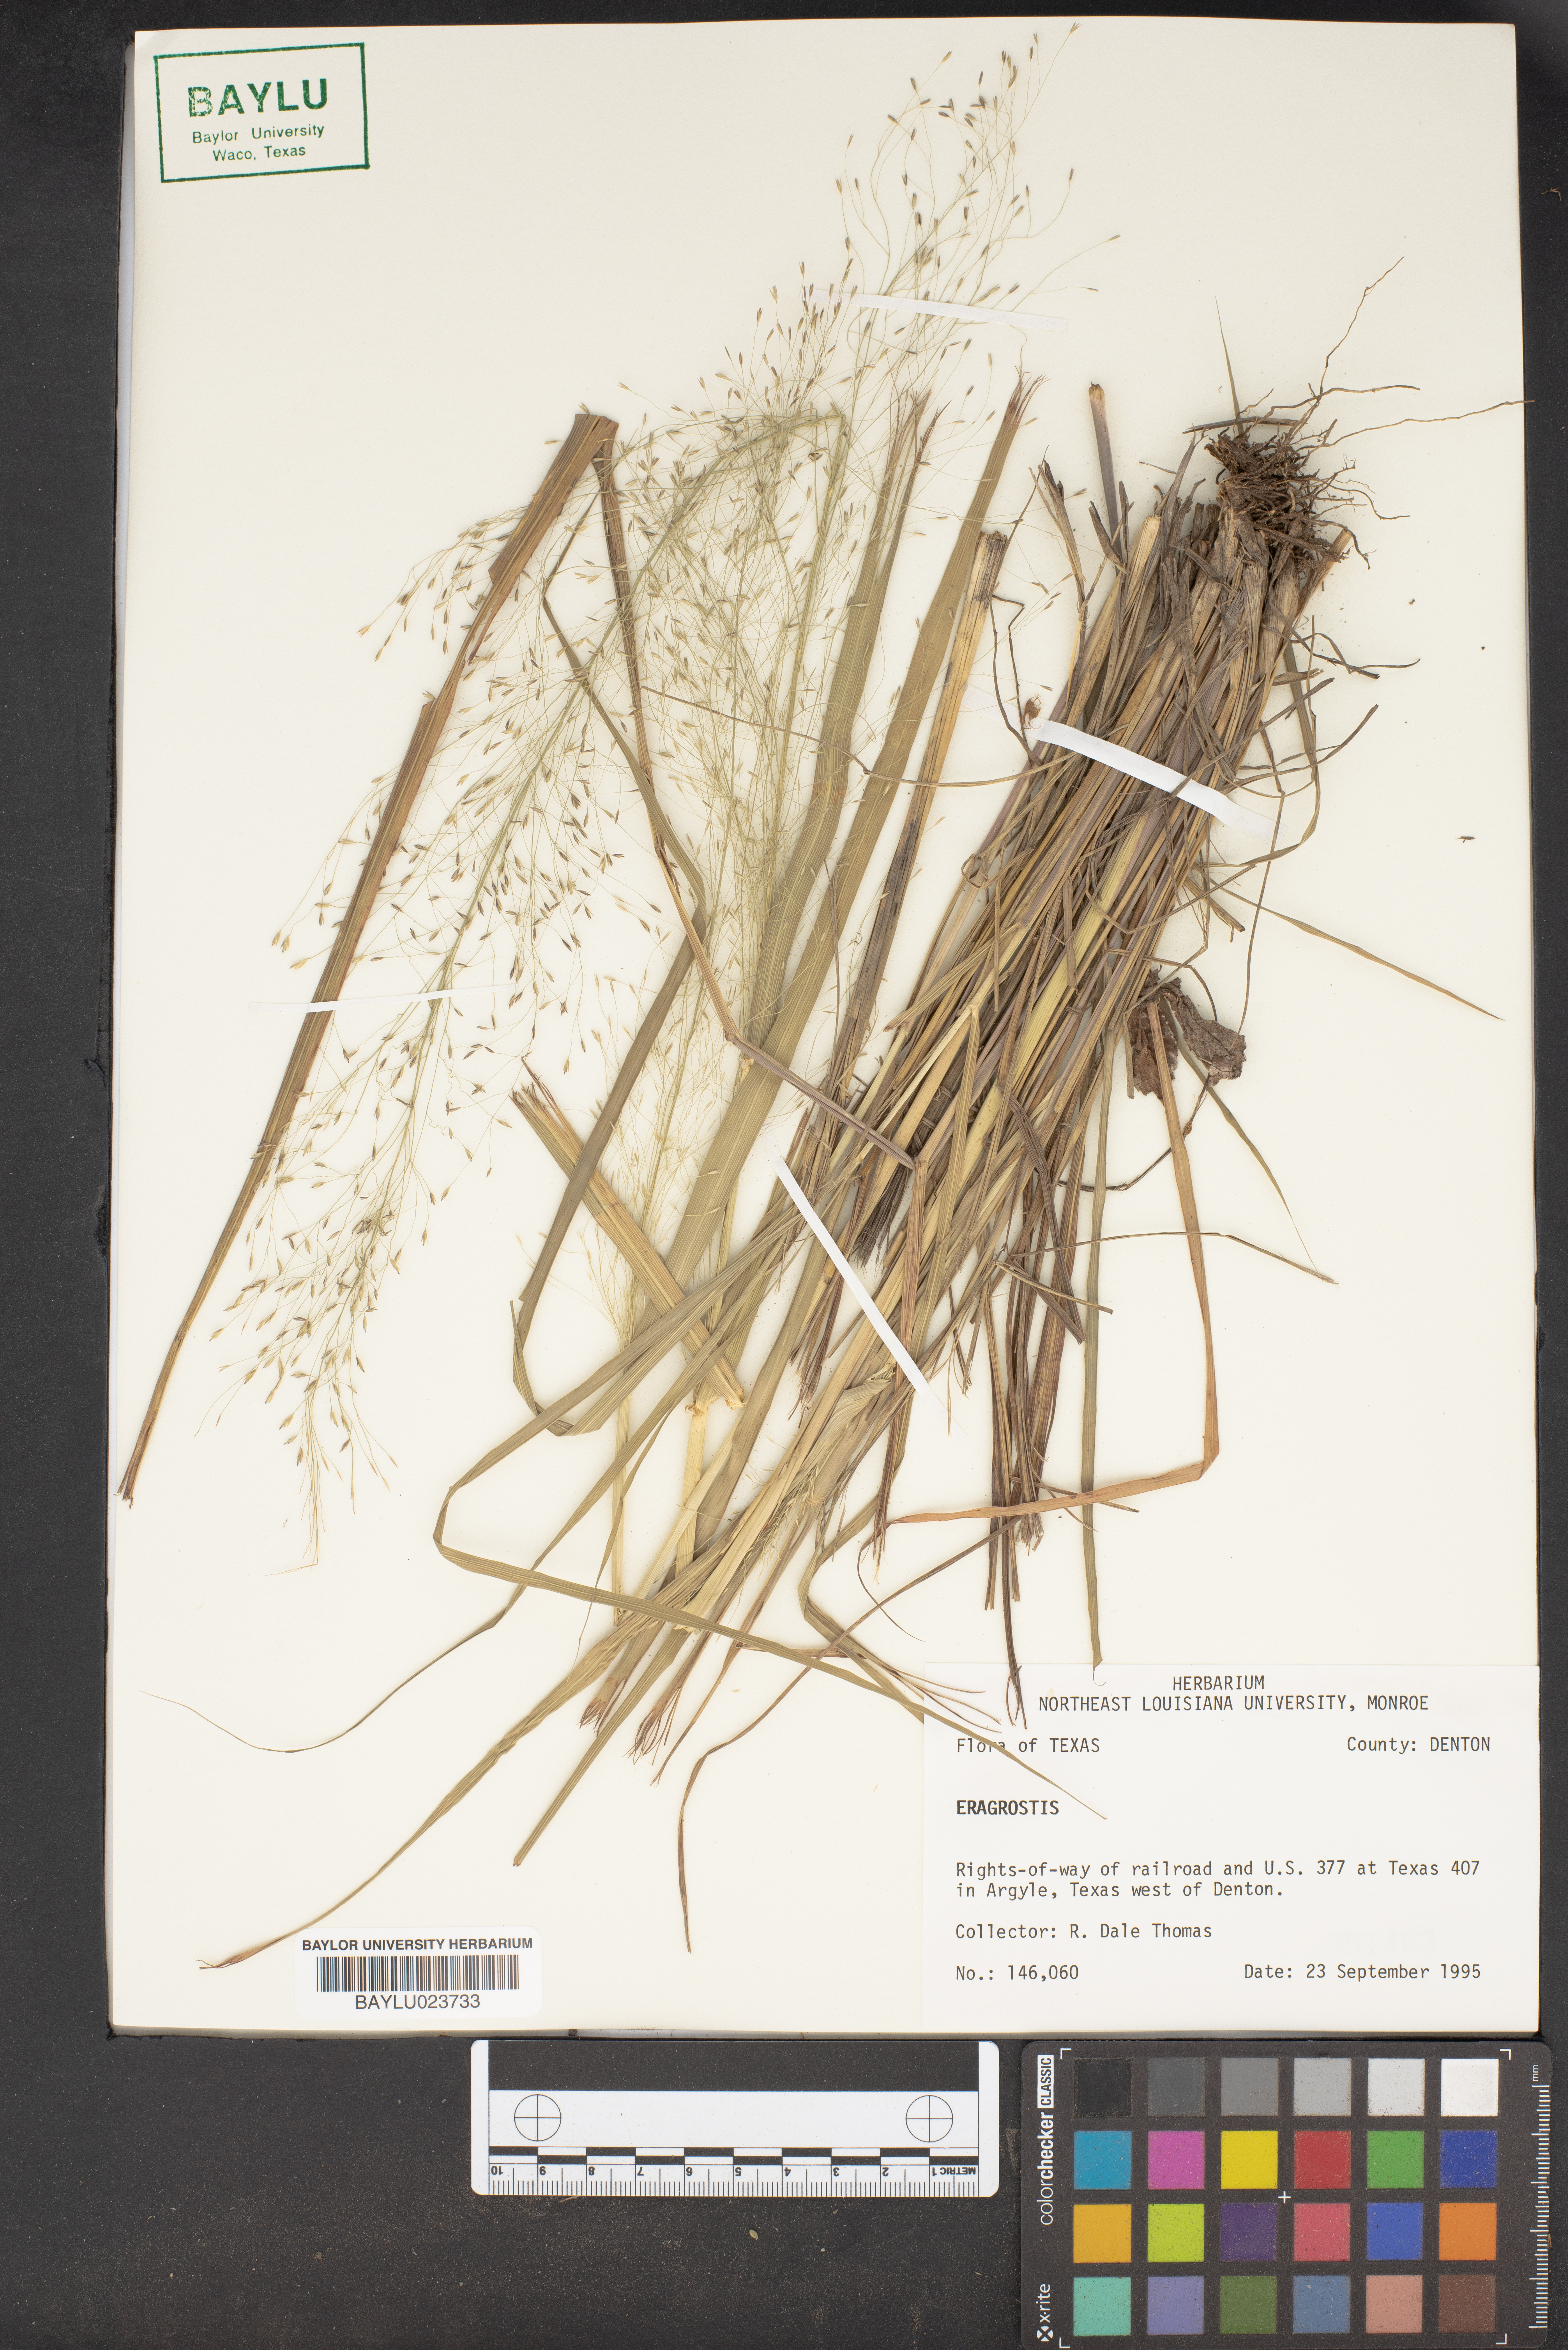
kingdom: Plantae
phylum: Tracheophyta
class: Liliopsida
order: Poales
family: Poaceae
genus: Eragrostis
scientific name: Eragrostis
